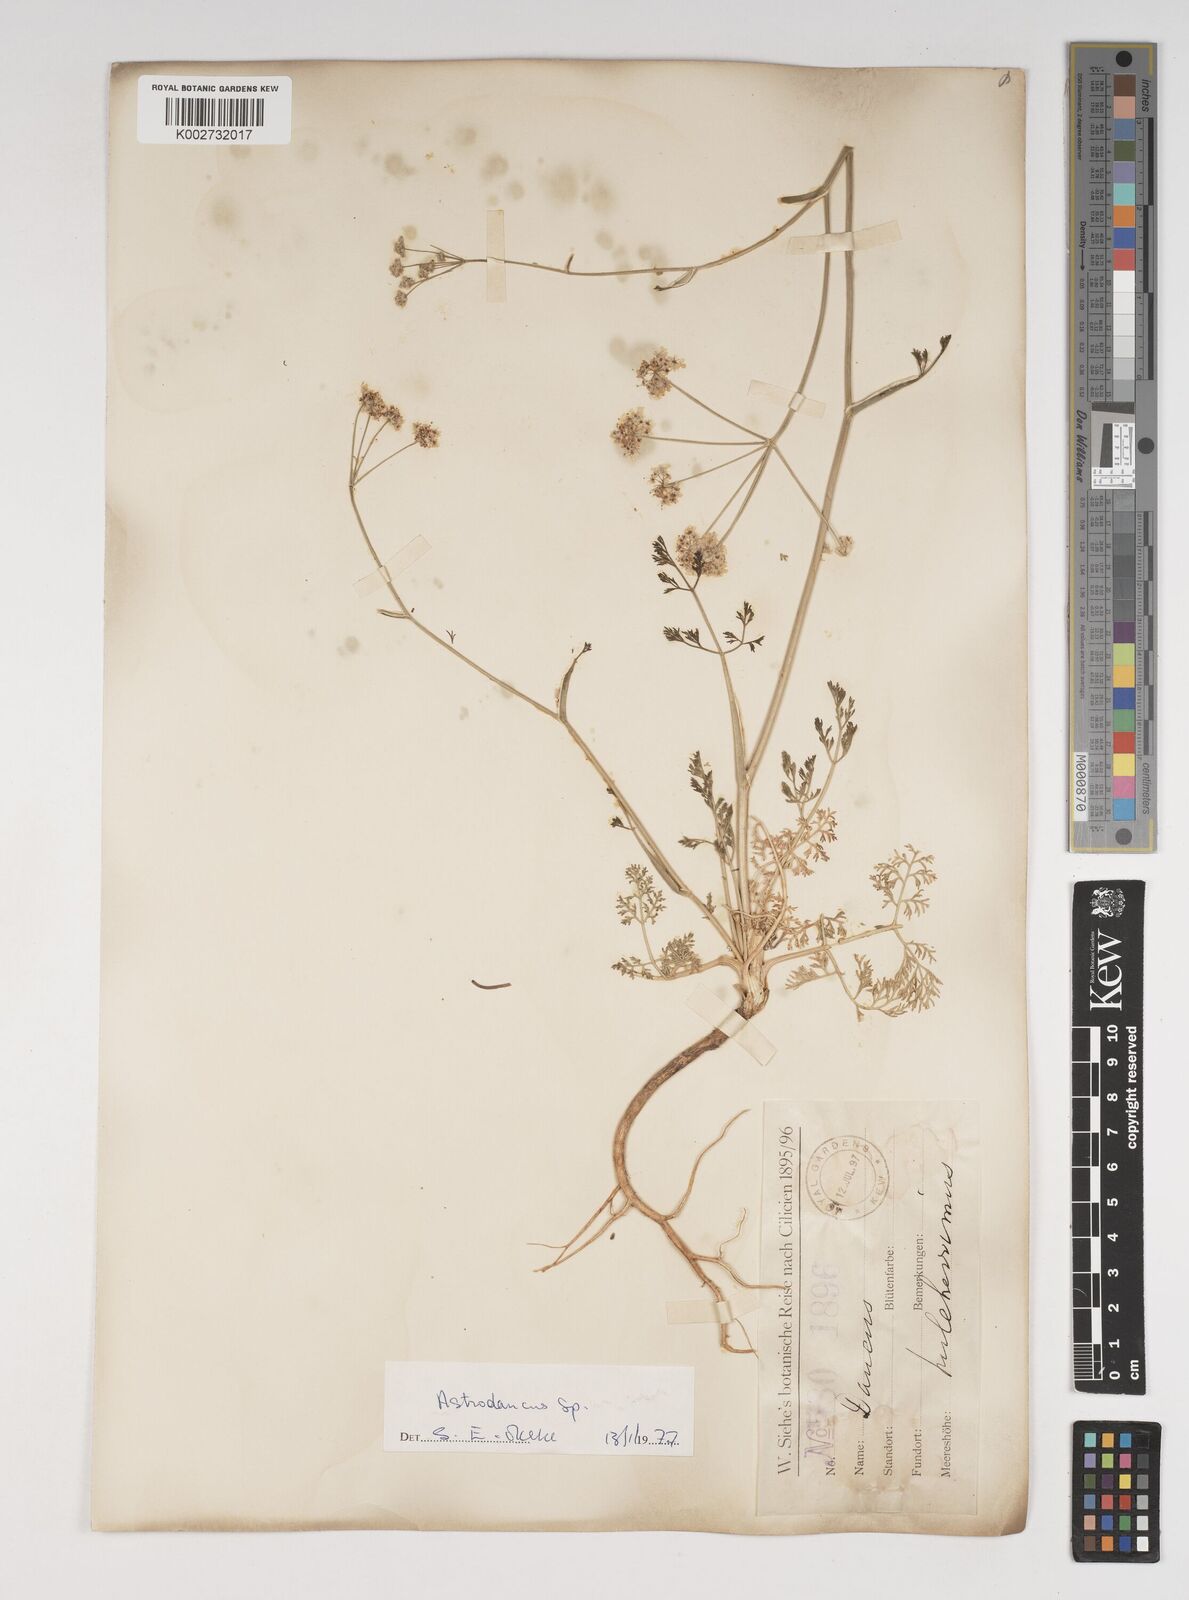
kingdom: Plantae
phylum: Tracheophyta
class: Magnoliopsida
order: Apiales
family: Apiaceae
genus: Astrodaucus
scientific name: Astrodaucus
